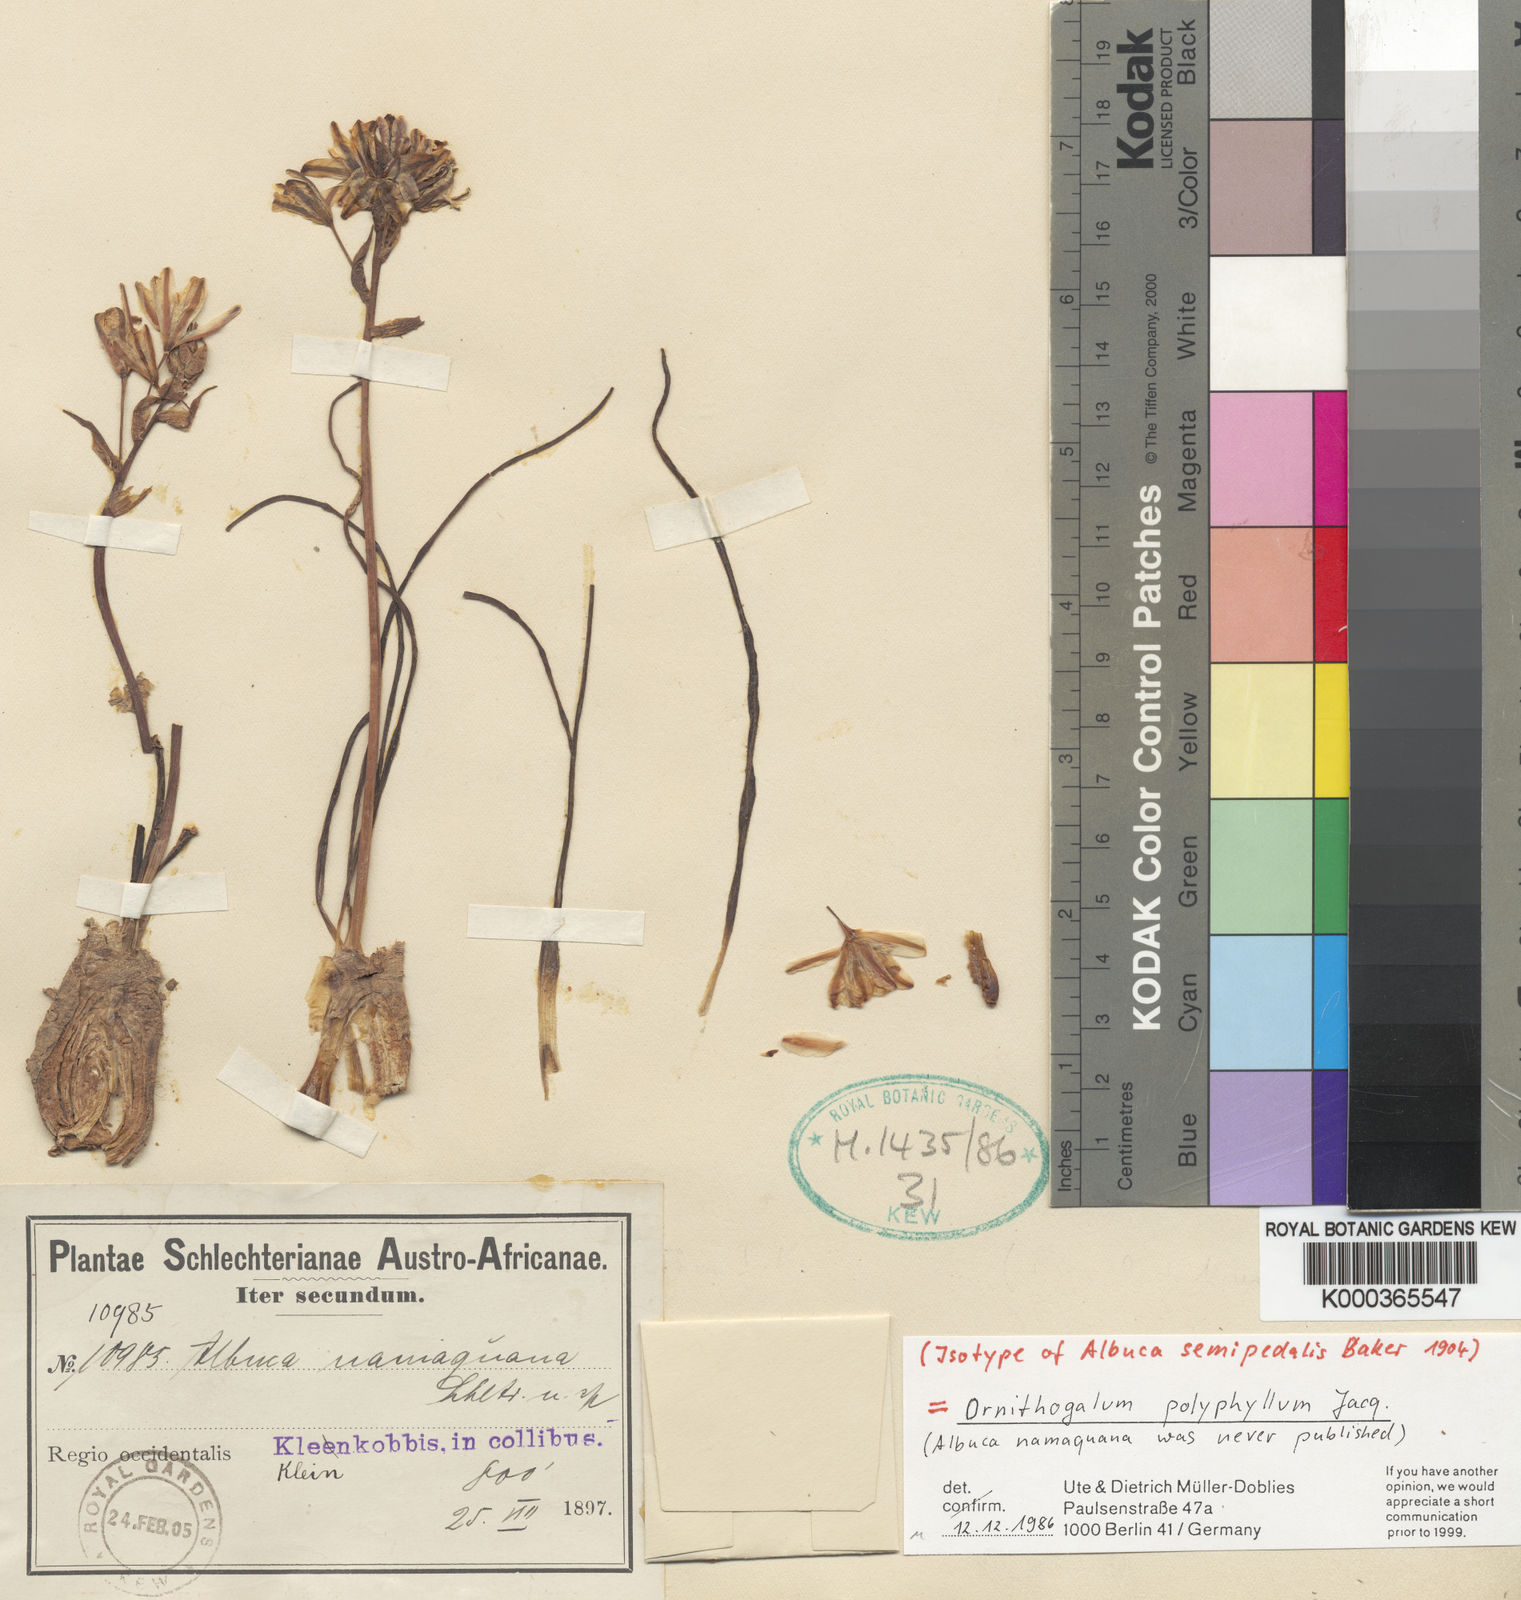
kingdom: Plantae
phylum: Tracheophyta
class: Liliopsida
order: Asparagales
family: Asparagaceae
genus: Ornithogalum
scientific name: Ornithogalum polyphyllum
